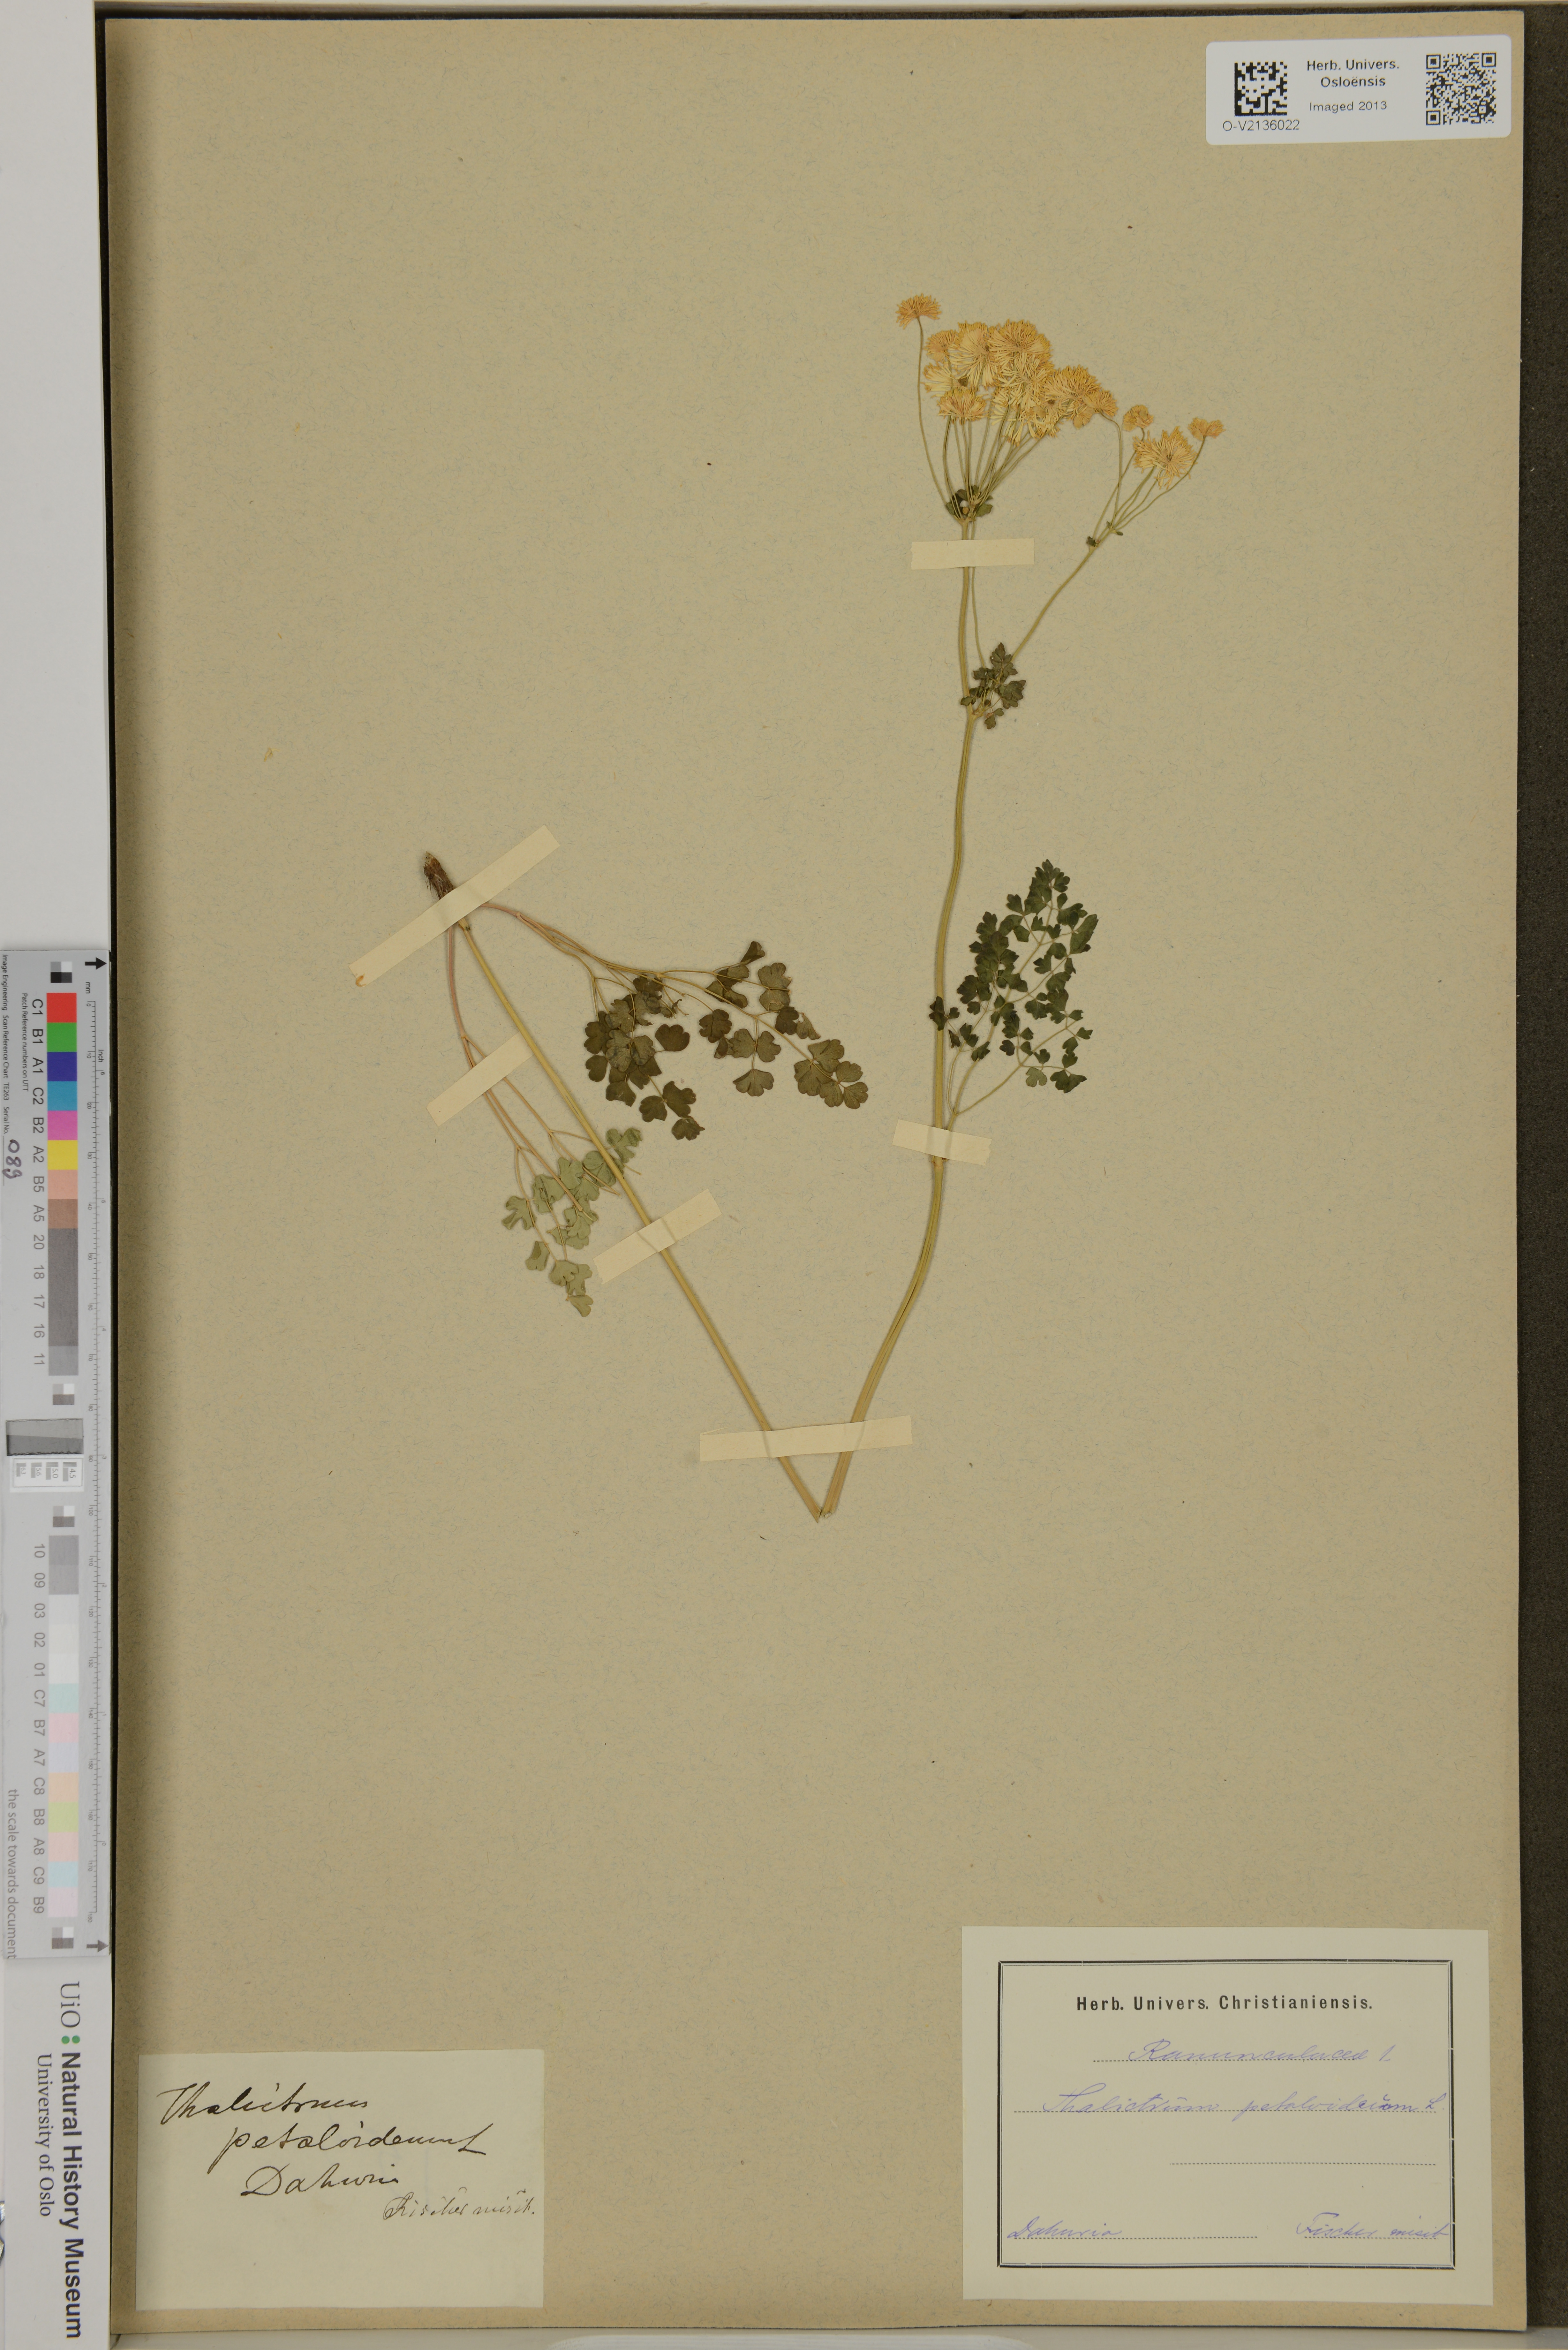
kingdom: Plantae
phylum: Tracheophyta
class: Magnoliopsida
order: Ranunculales
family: Ranunculaceae
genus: Thalictrum
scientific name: Thalictrum petaloideum
